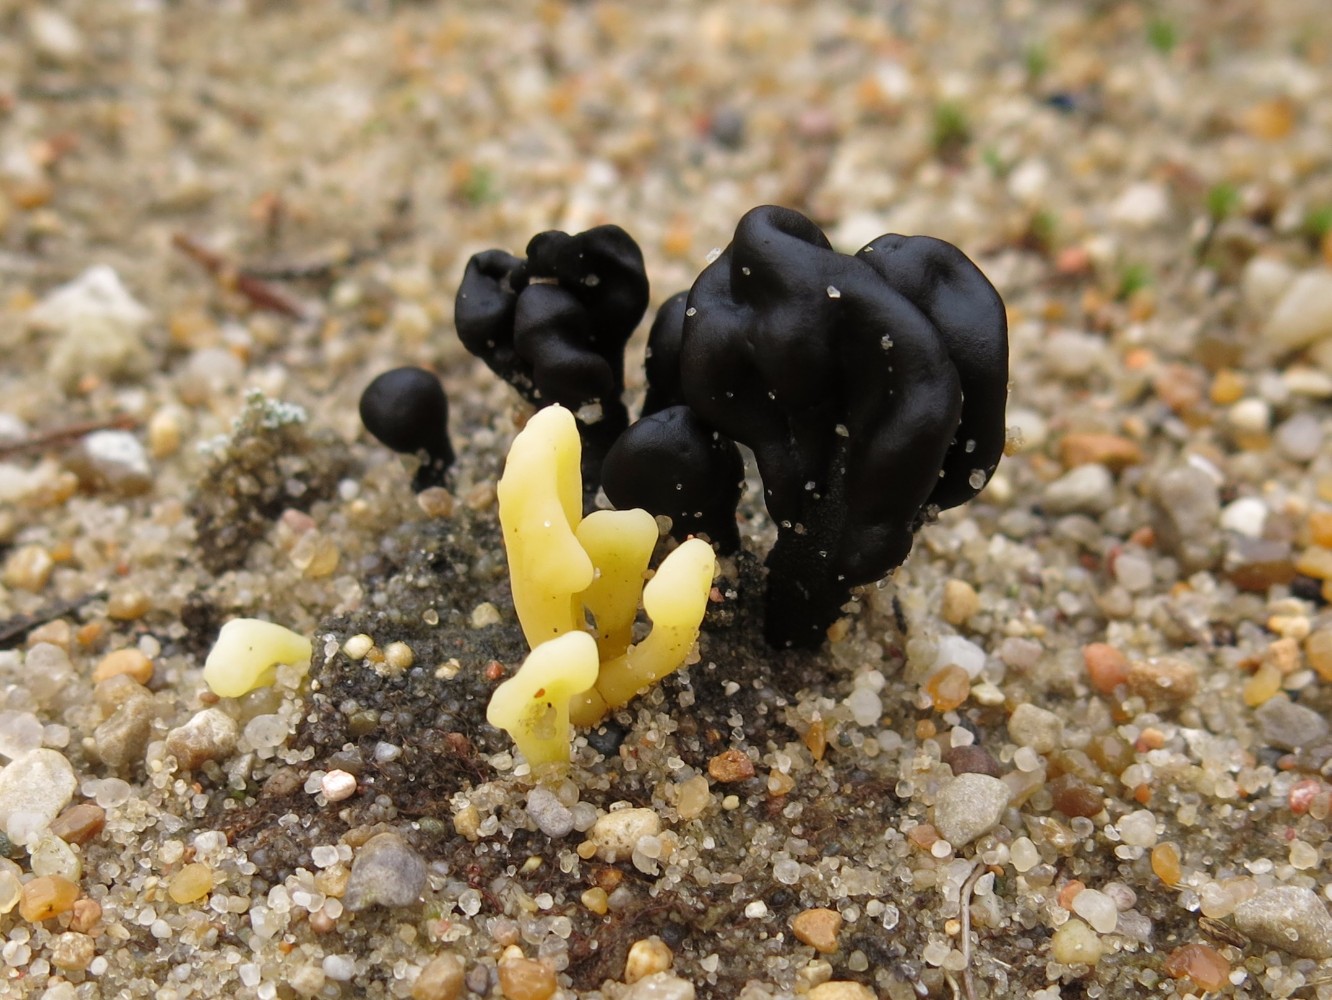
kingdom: Fungi
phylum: Ascomycota
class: Geoglossomycetes
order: Geoglossales
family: Geoglossaceae
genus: Sabuloglossum
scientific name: Sabuloglossum arenarium
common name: klit-jordtunge
